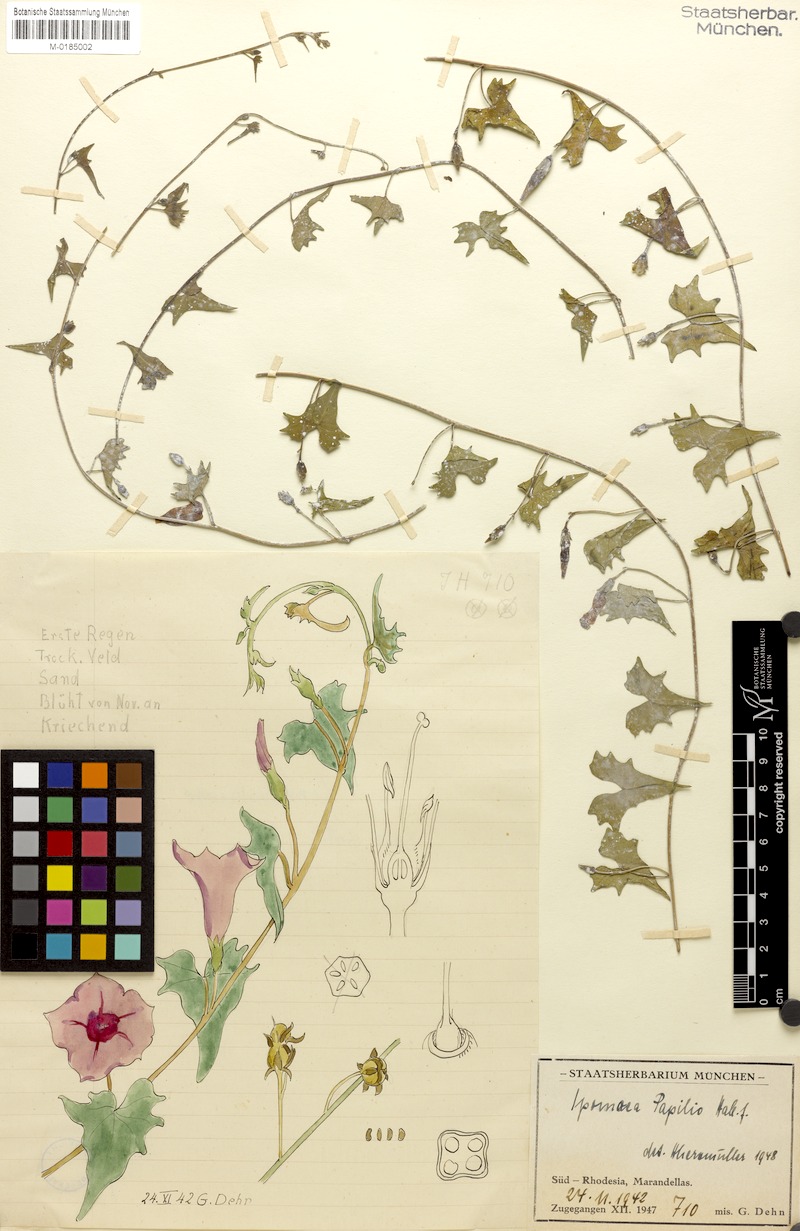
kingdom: Plantae
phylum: Tracheophyta
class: Magnoliopsida
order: Solanales
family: Convolvulaceae
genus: Ipomoea
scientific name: Ipomoea papilio
